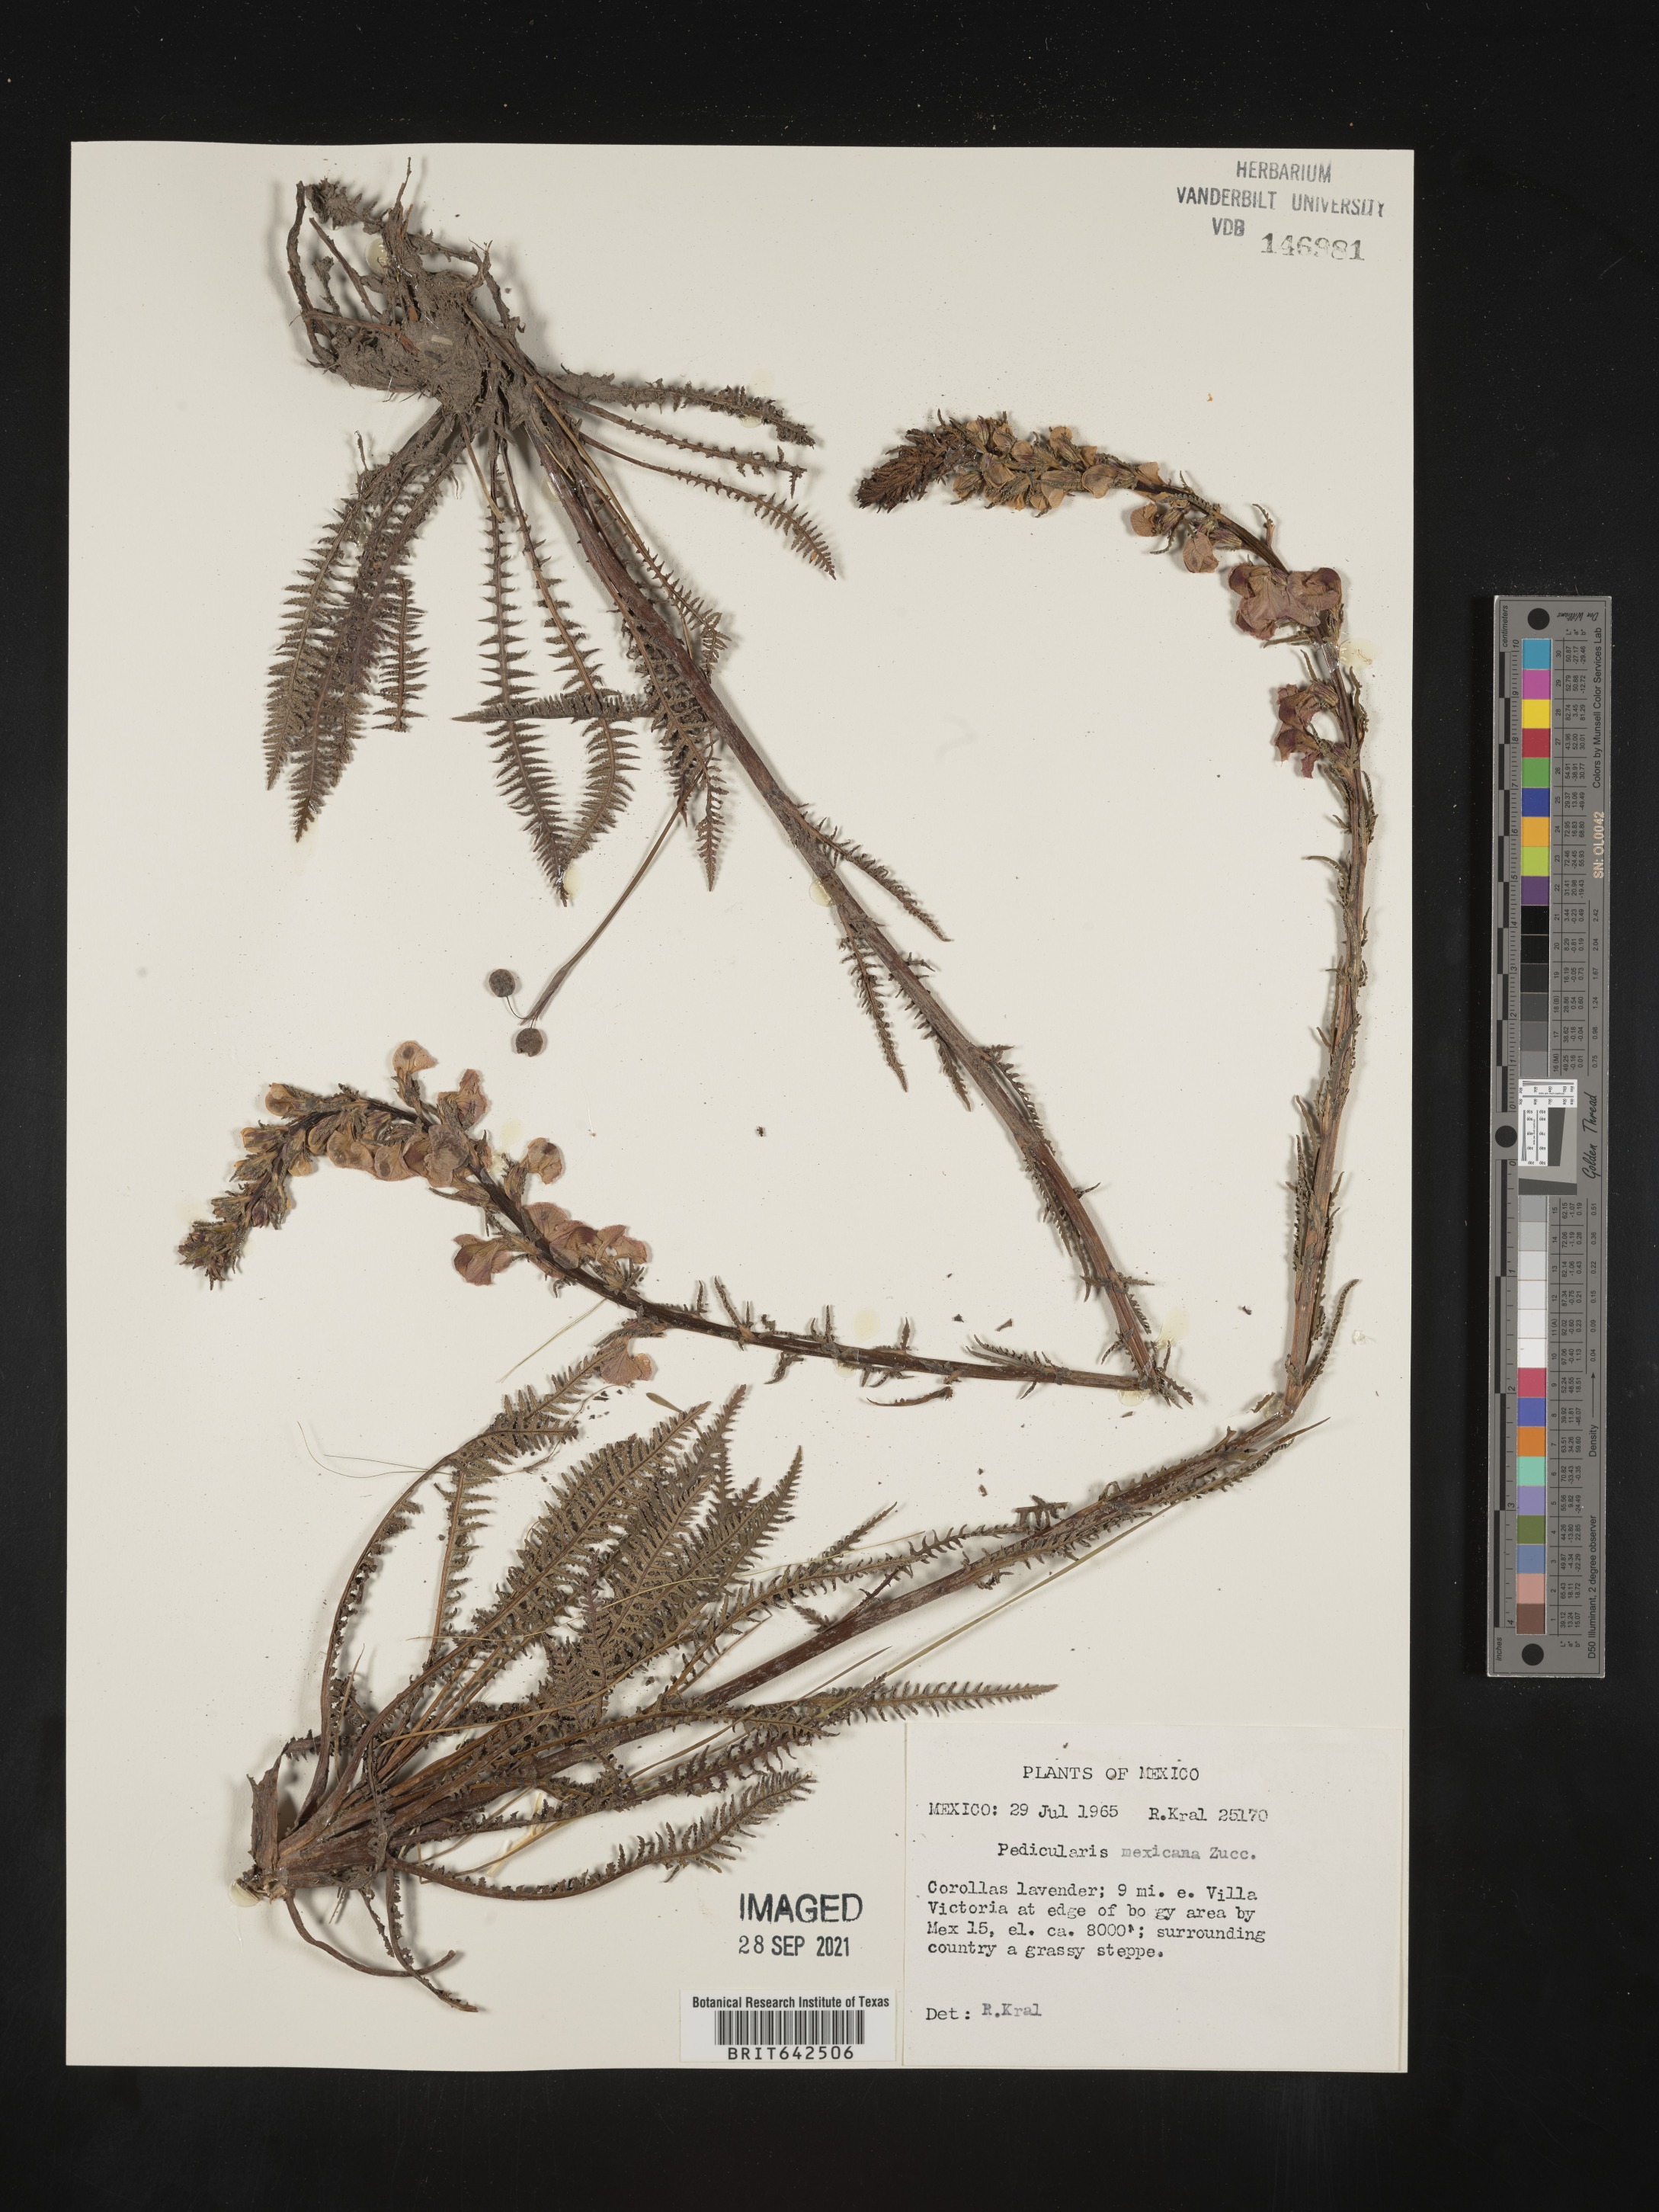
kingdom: Plantae
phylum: Tracheophyta
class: Magnoliopsida
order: Lamiales
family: Orobanchaceae
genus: Pedicularis
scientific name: Pedicularis
